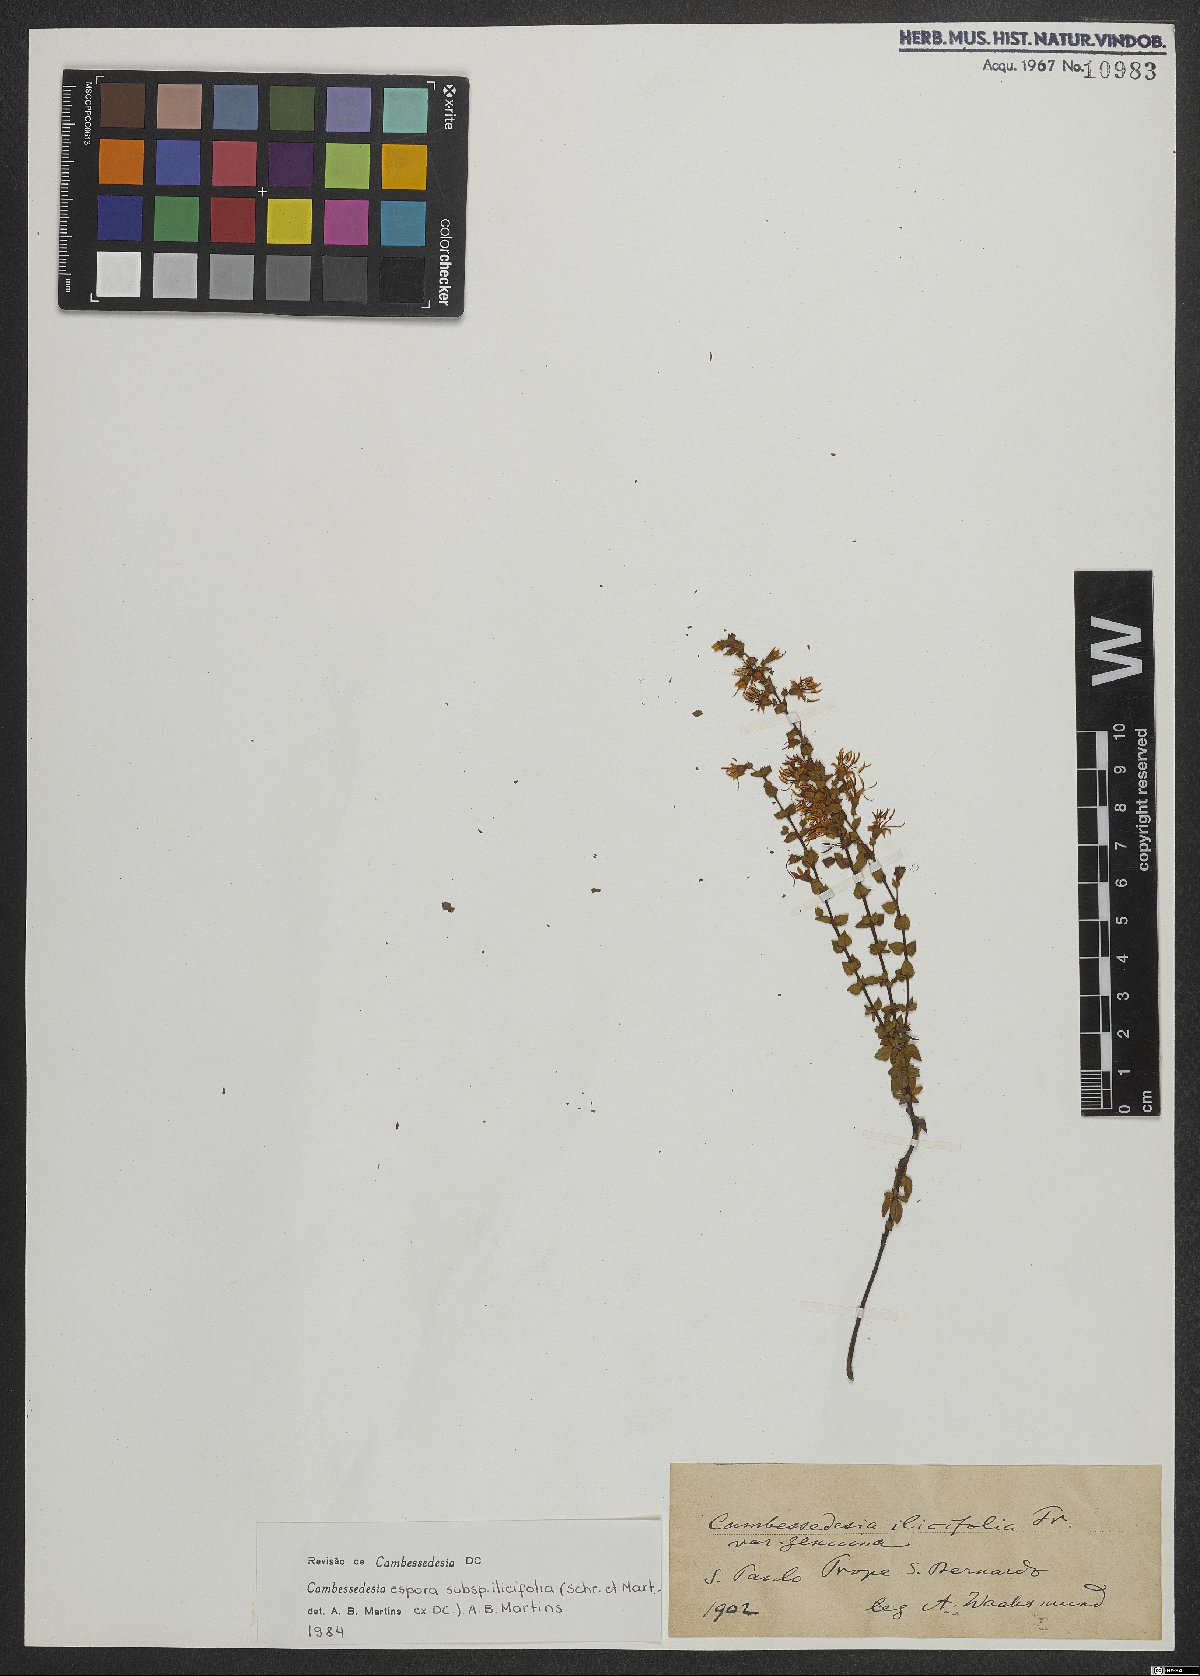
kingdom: Plantae
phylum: Tracheophyta
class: Magnoliopsida
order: Myrtales
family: Melastomataceae
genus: Cambessedesia
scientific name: Cambessedesia espora
